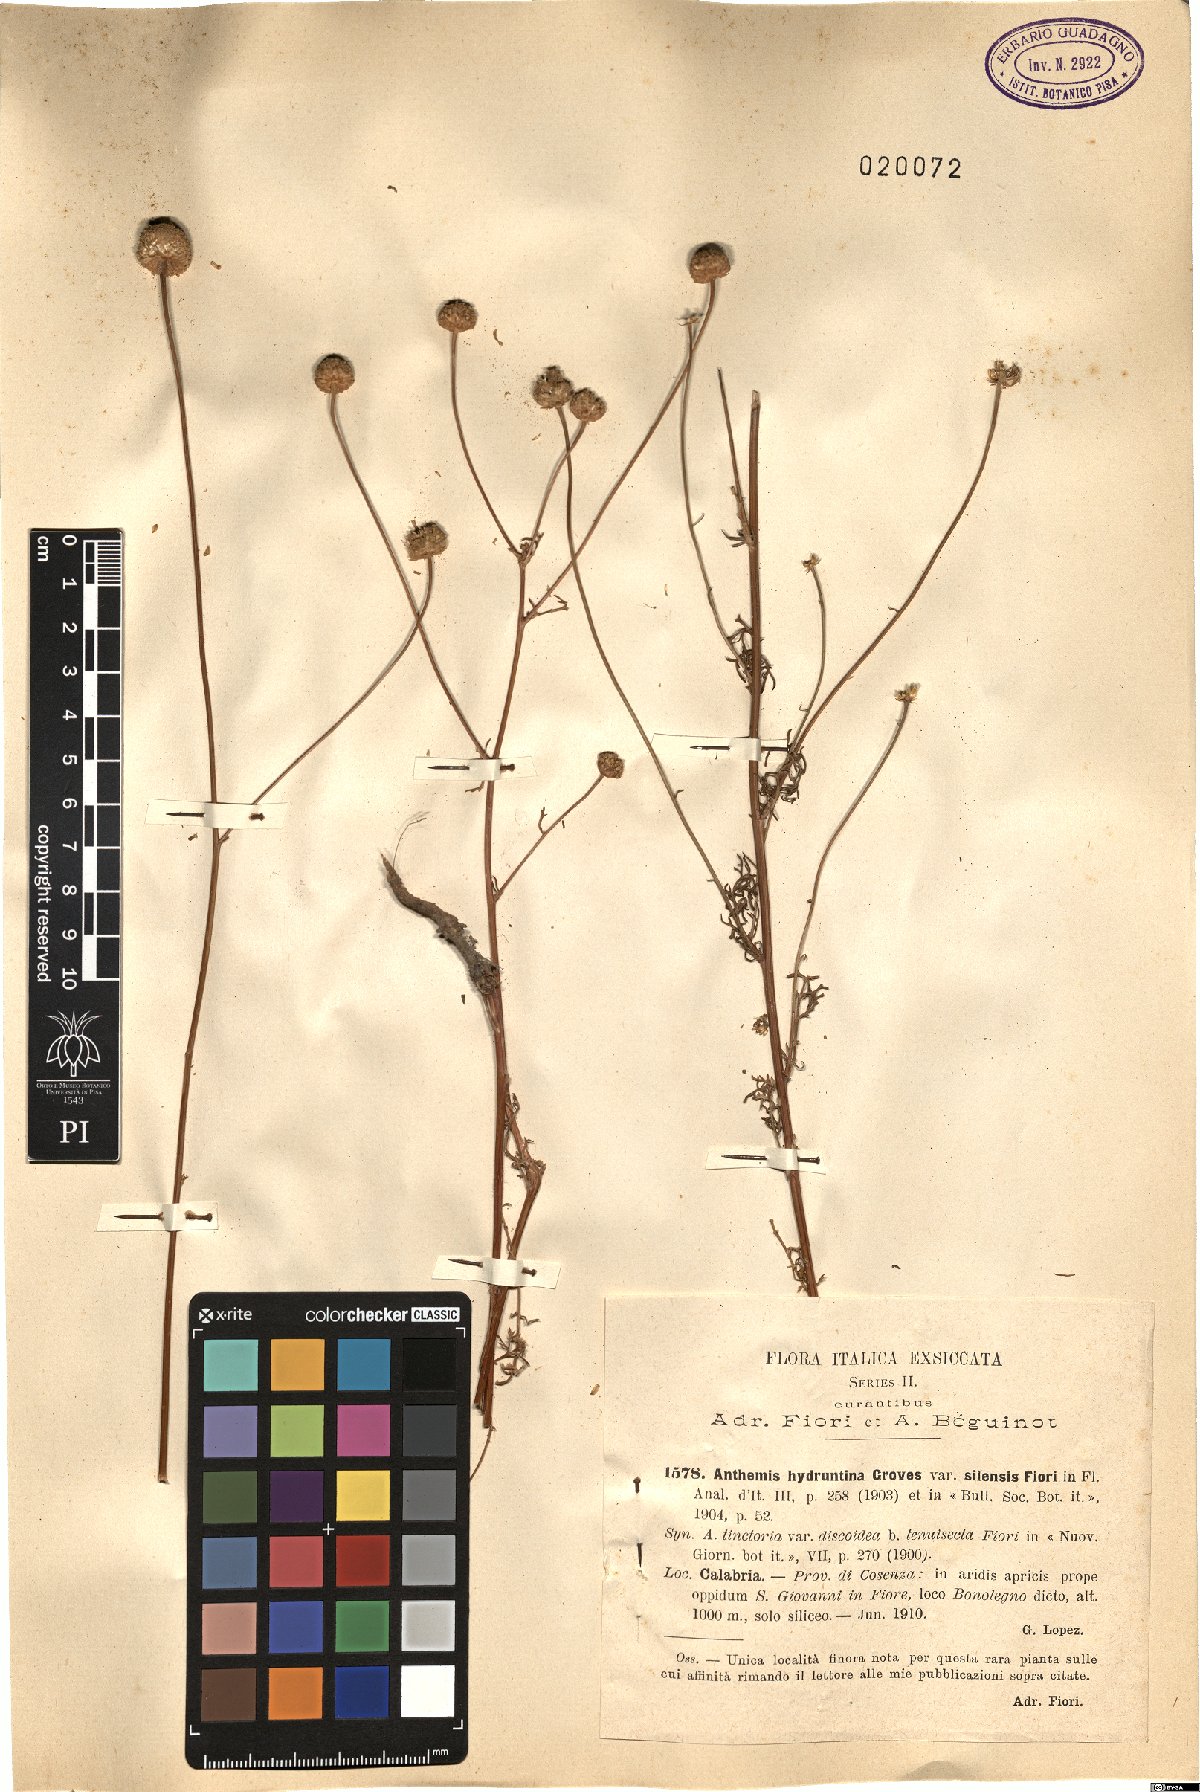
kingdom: Plantae
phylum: Tracheophyta
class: Magnoliopsida
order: Asterales
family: Asteraceae
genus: Anthemis
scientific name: Anthemis hydruntina
